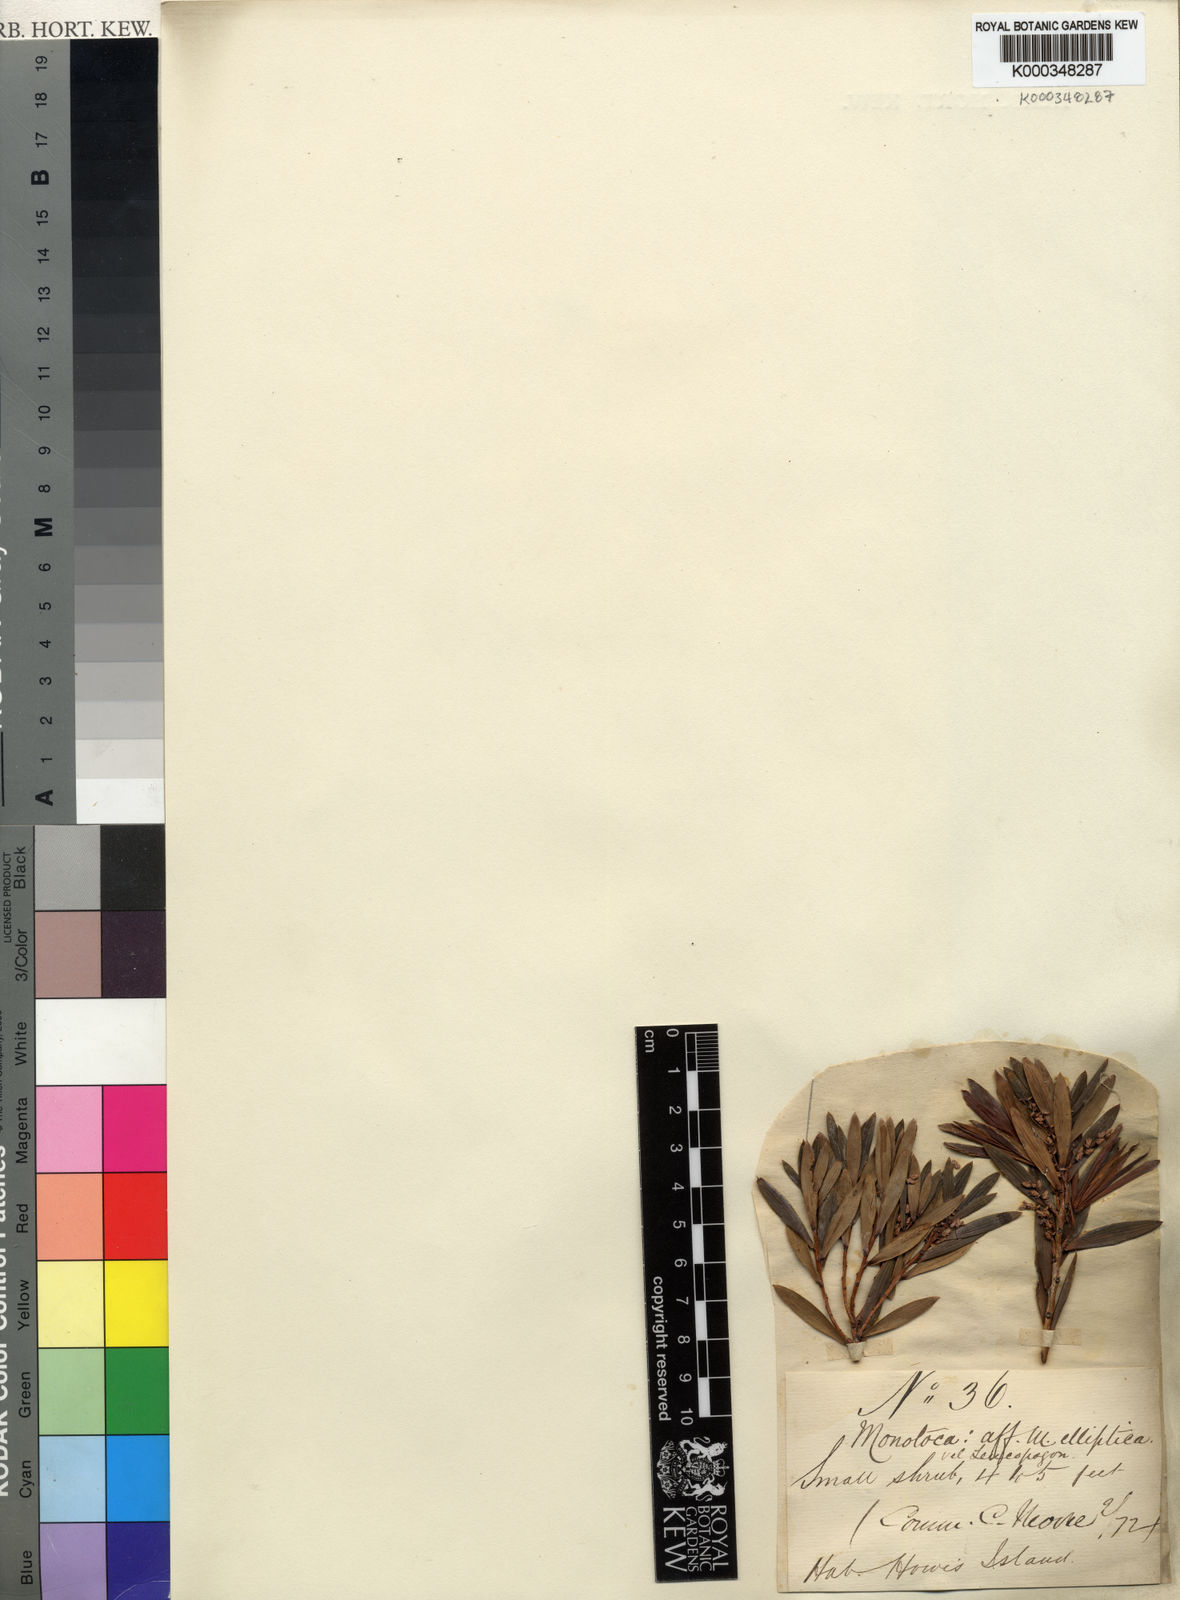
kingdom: Plantae
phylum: Tracheophyta
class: Magnoliopsida
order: Ericales
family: Ericaceae
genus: Monotoca
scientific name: Monotoca elliptica
